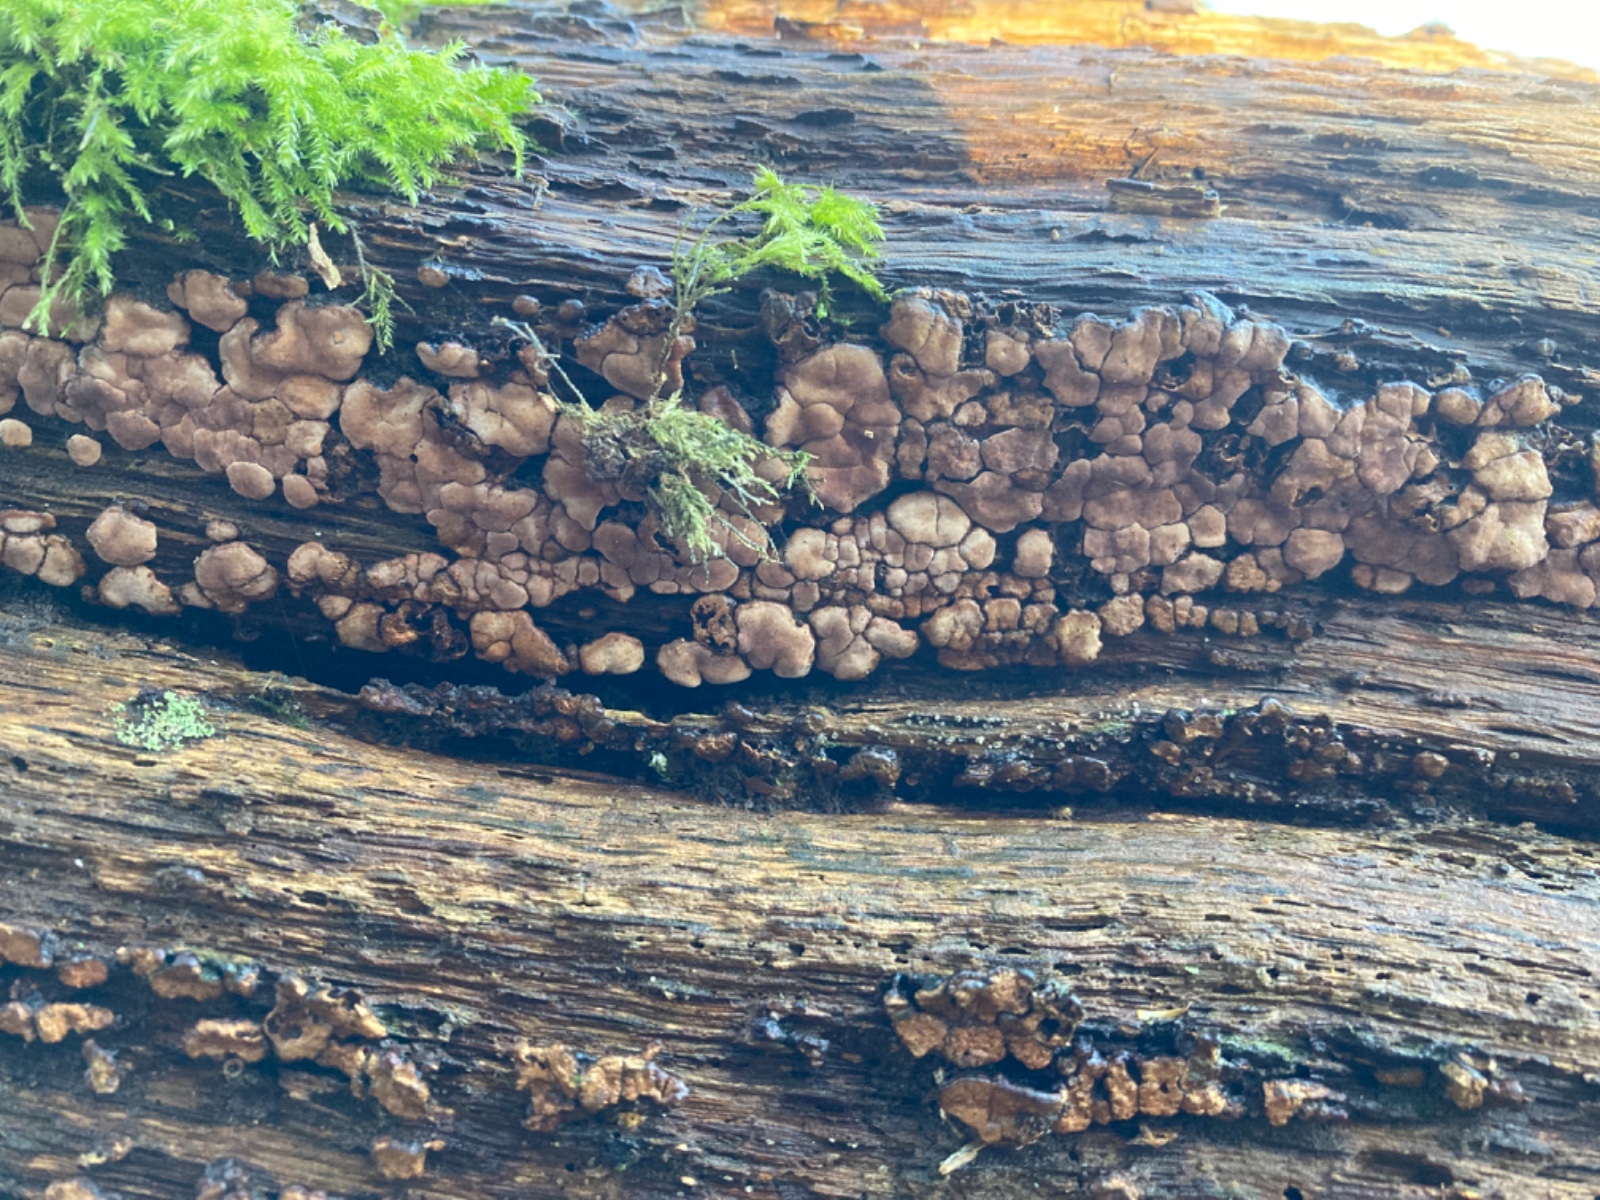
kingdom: Fungi
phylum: Basidiomycota
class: Agaricomycetes
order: Russulales
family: Stereaceae
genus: Xylobolus
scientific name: Xylobolus frustulatus
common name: mønster-lædersvamp
